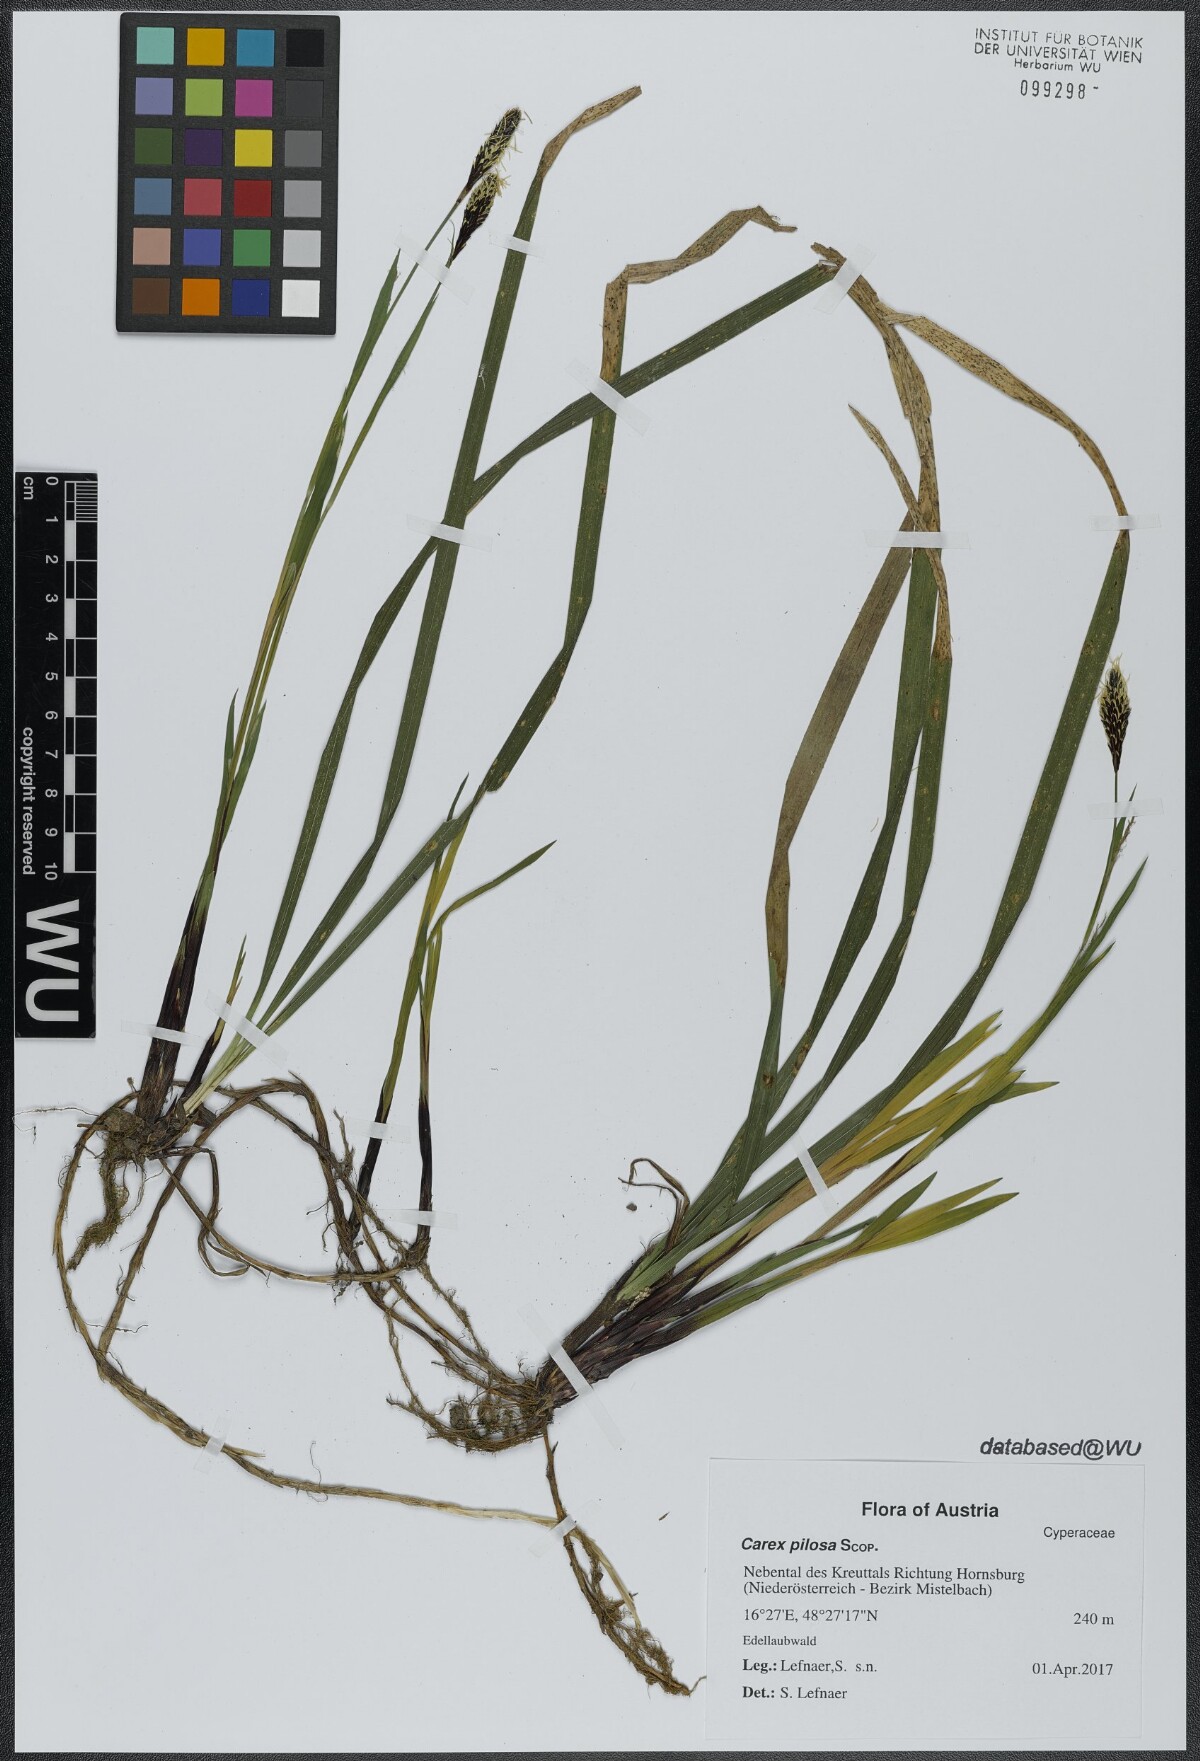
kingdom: Plantae
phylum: Tracheophyta
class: Liliopsida
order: Poales
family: Cyperaceae
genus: Carex
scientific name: Carex pilosa
